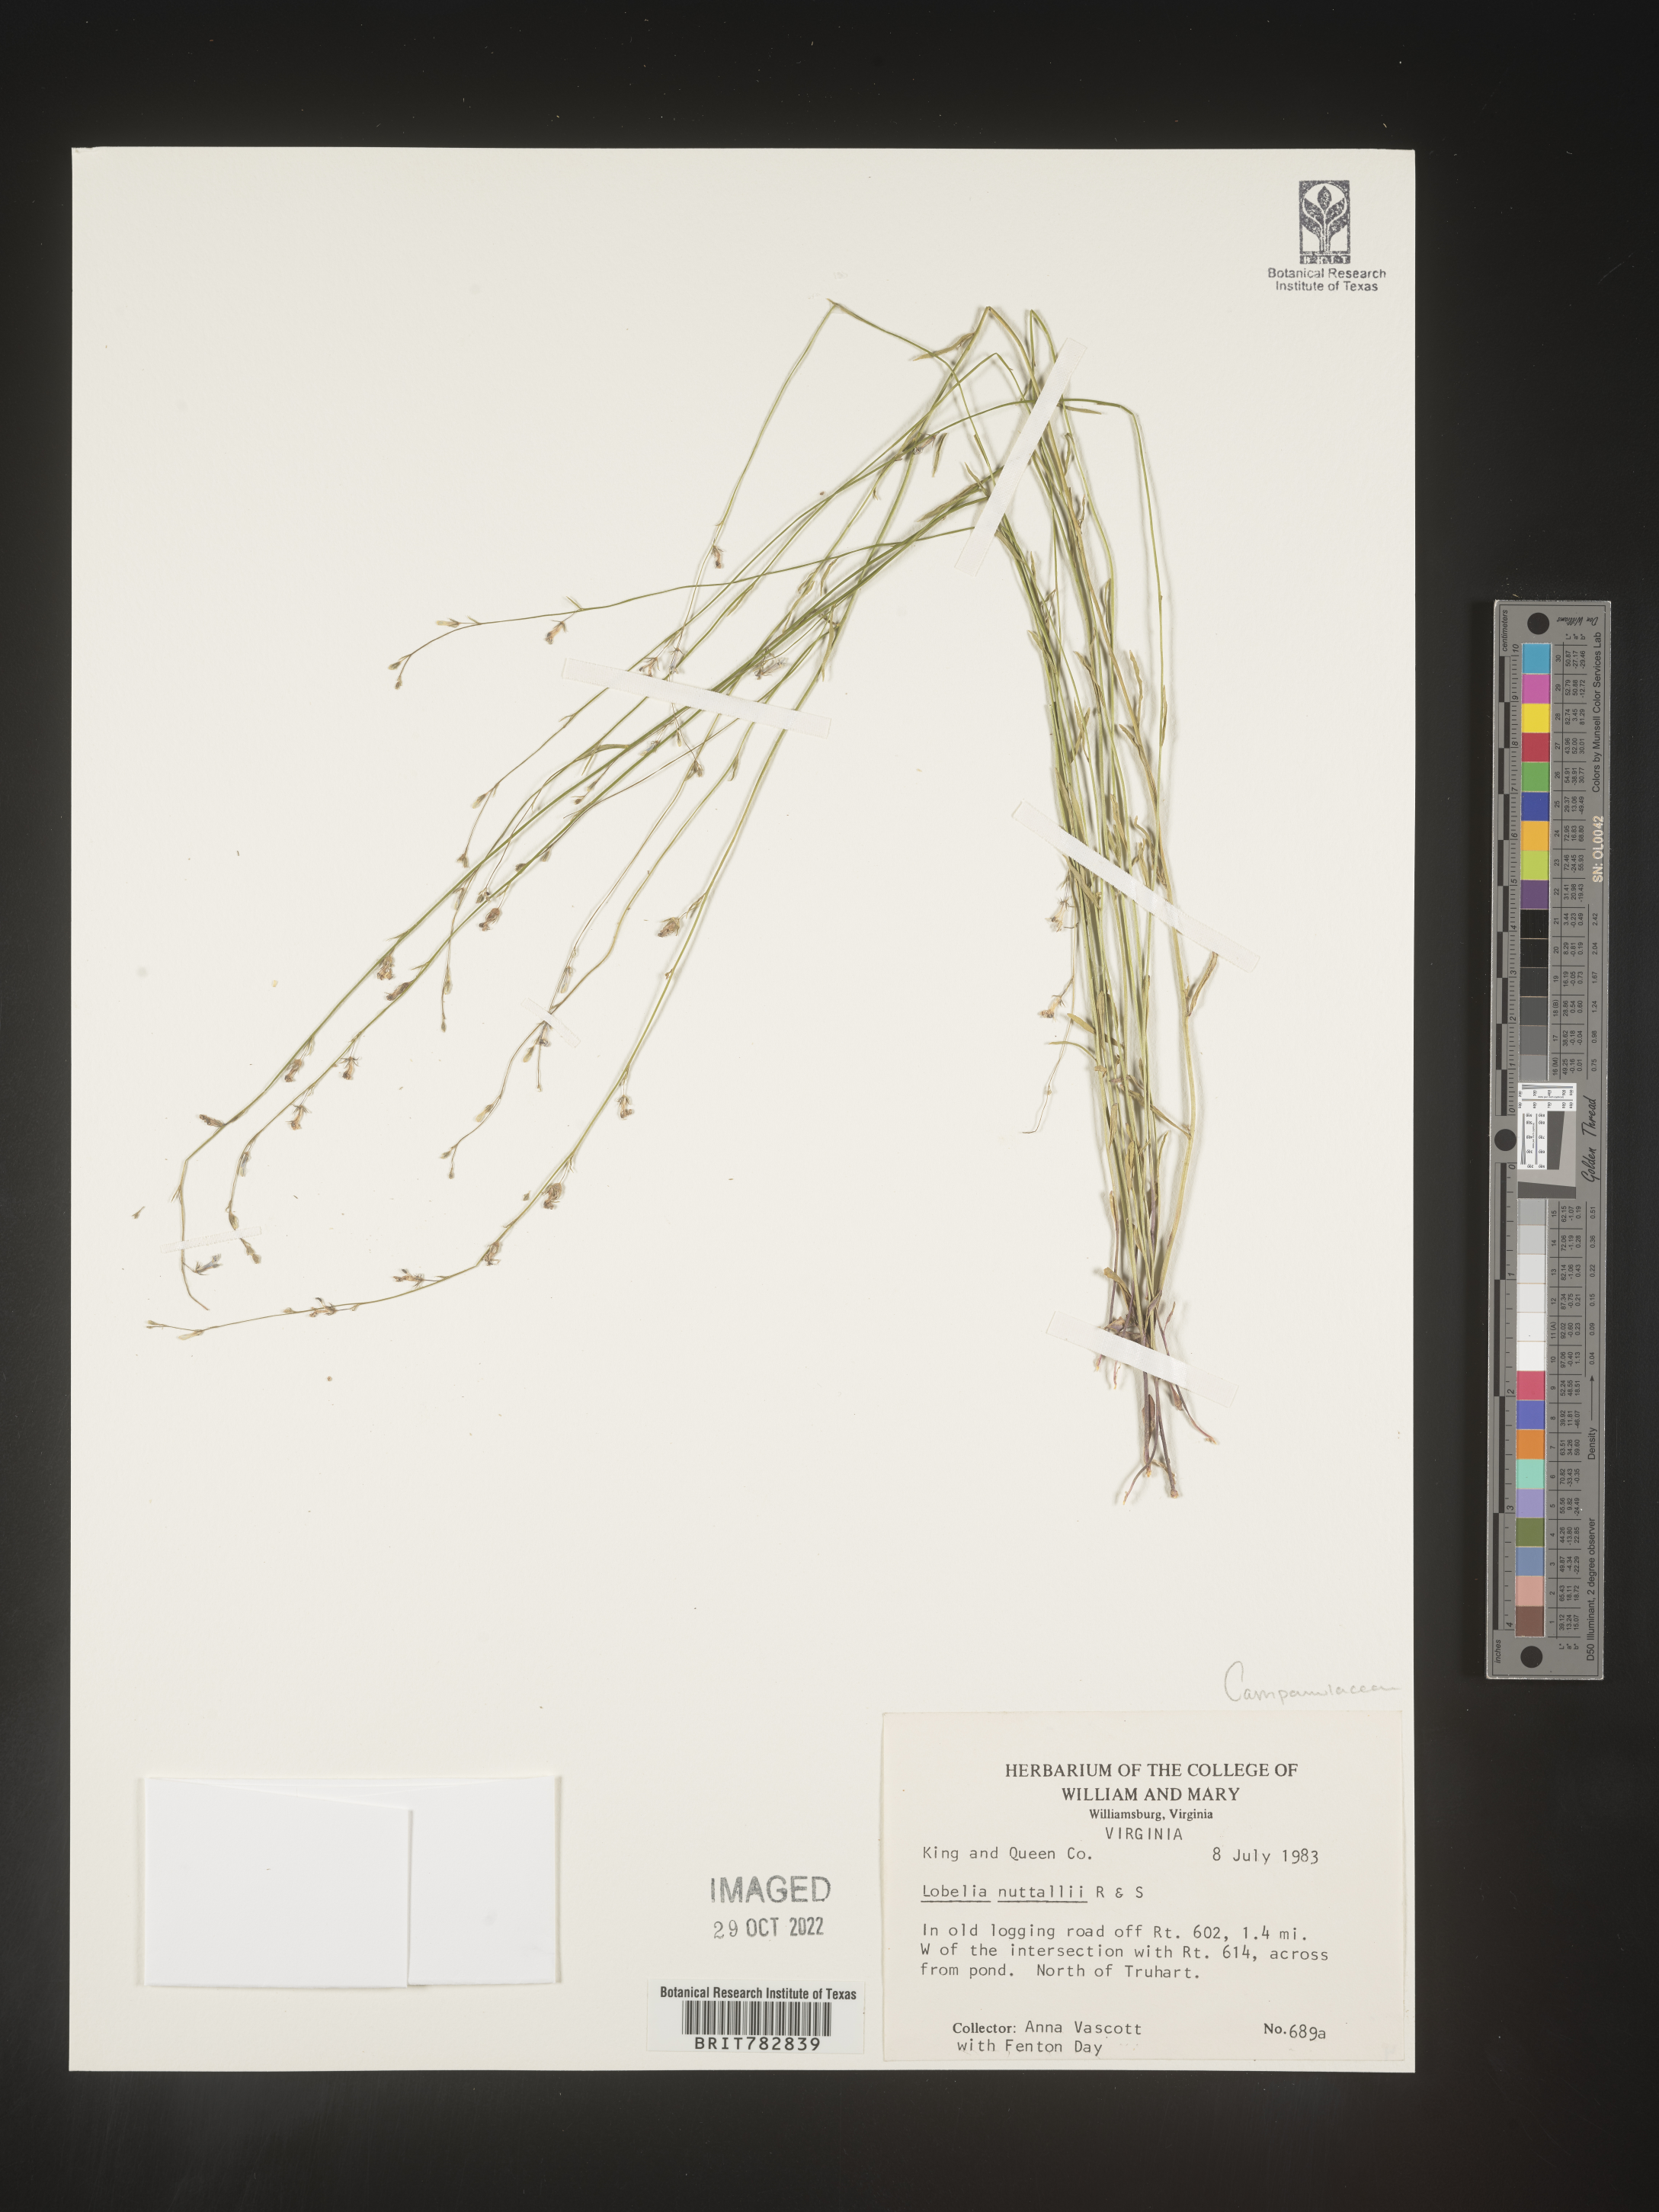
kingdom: Plantae
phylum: Tracheophyta
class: Magnoliopsida
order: Asterales
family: Campanulaceae
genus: Lobelia
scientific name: Lobelia nuttallii
